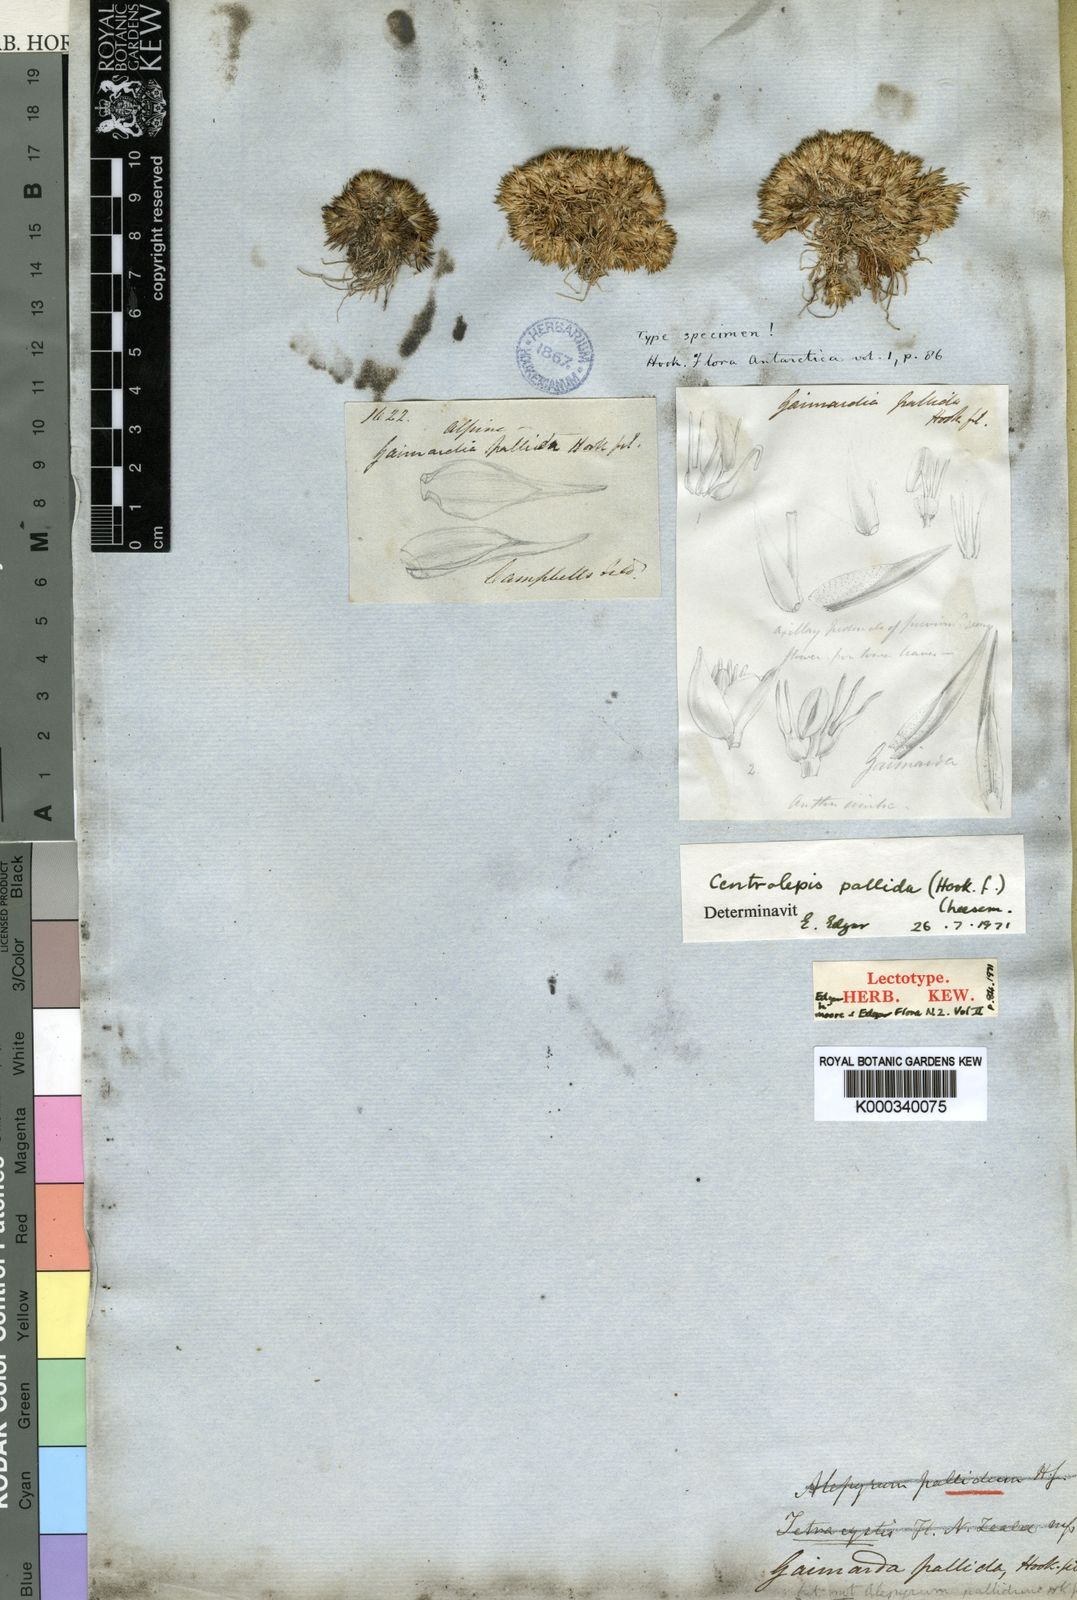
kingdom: Plantae
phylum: Tracheophyta
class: Liliopsida
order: Poales
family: Restionaceae
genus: Centrolepis
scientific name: Centrolepis pallida
